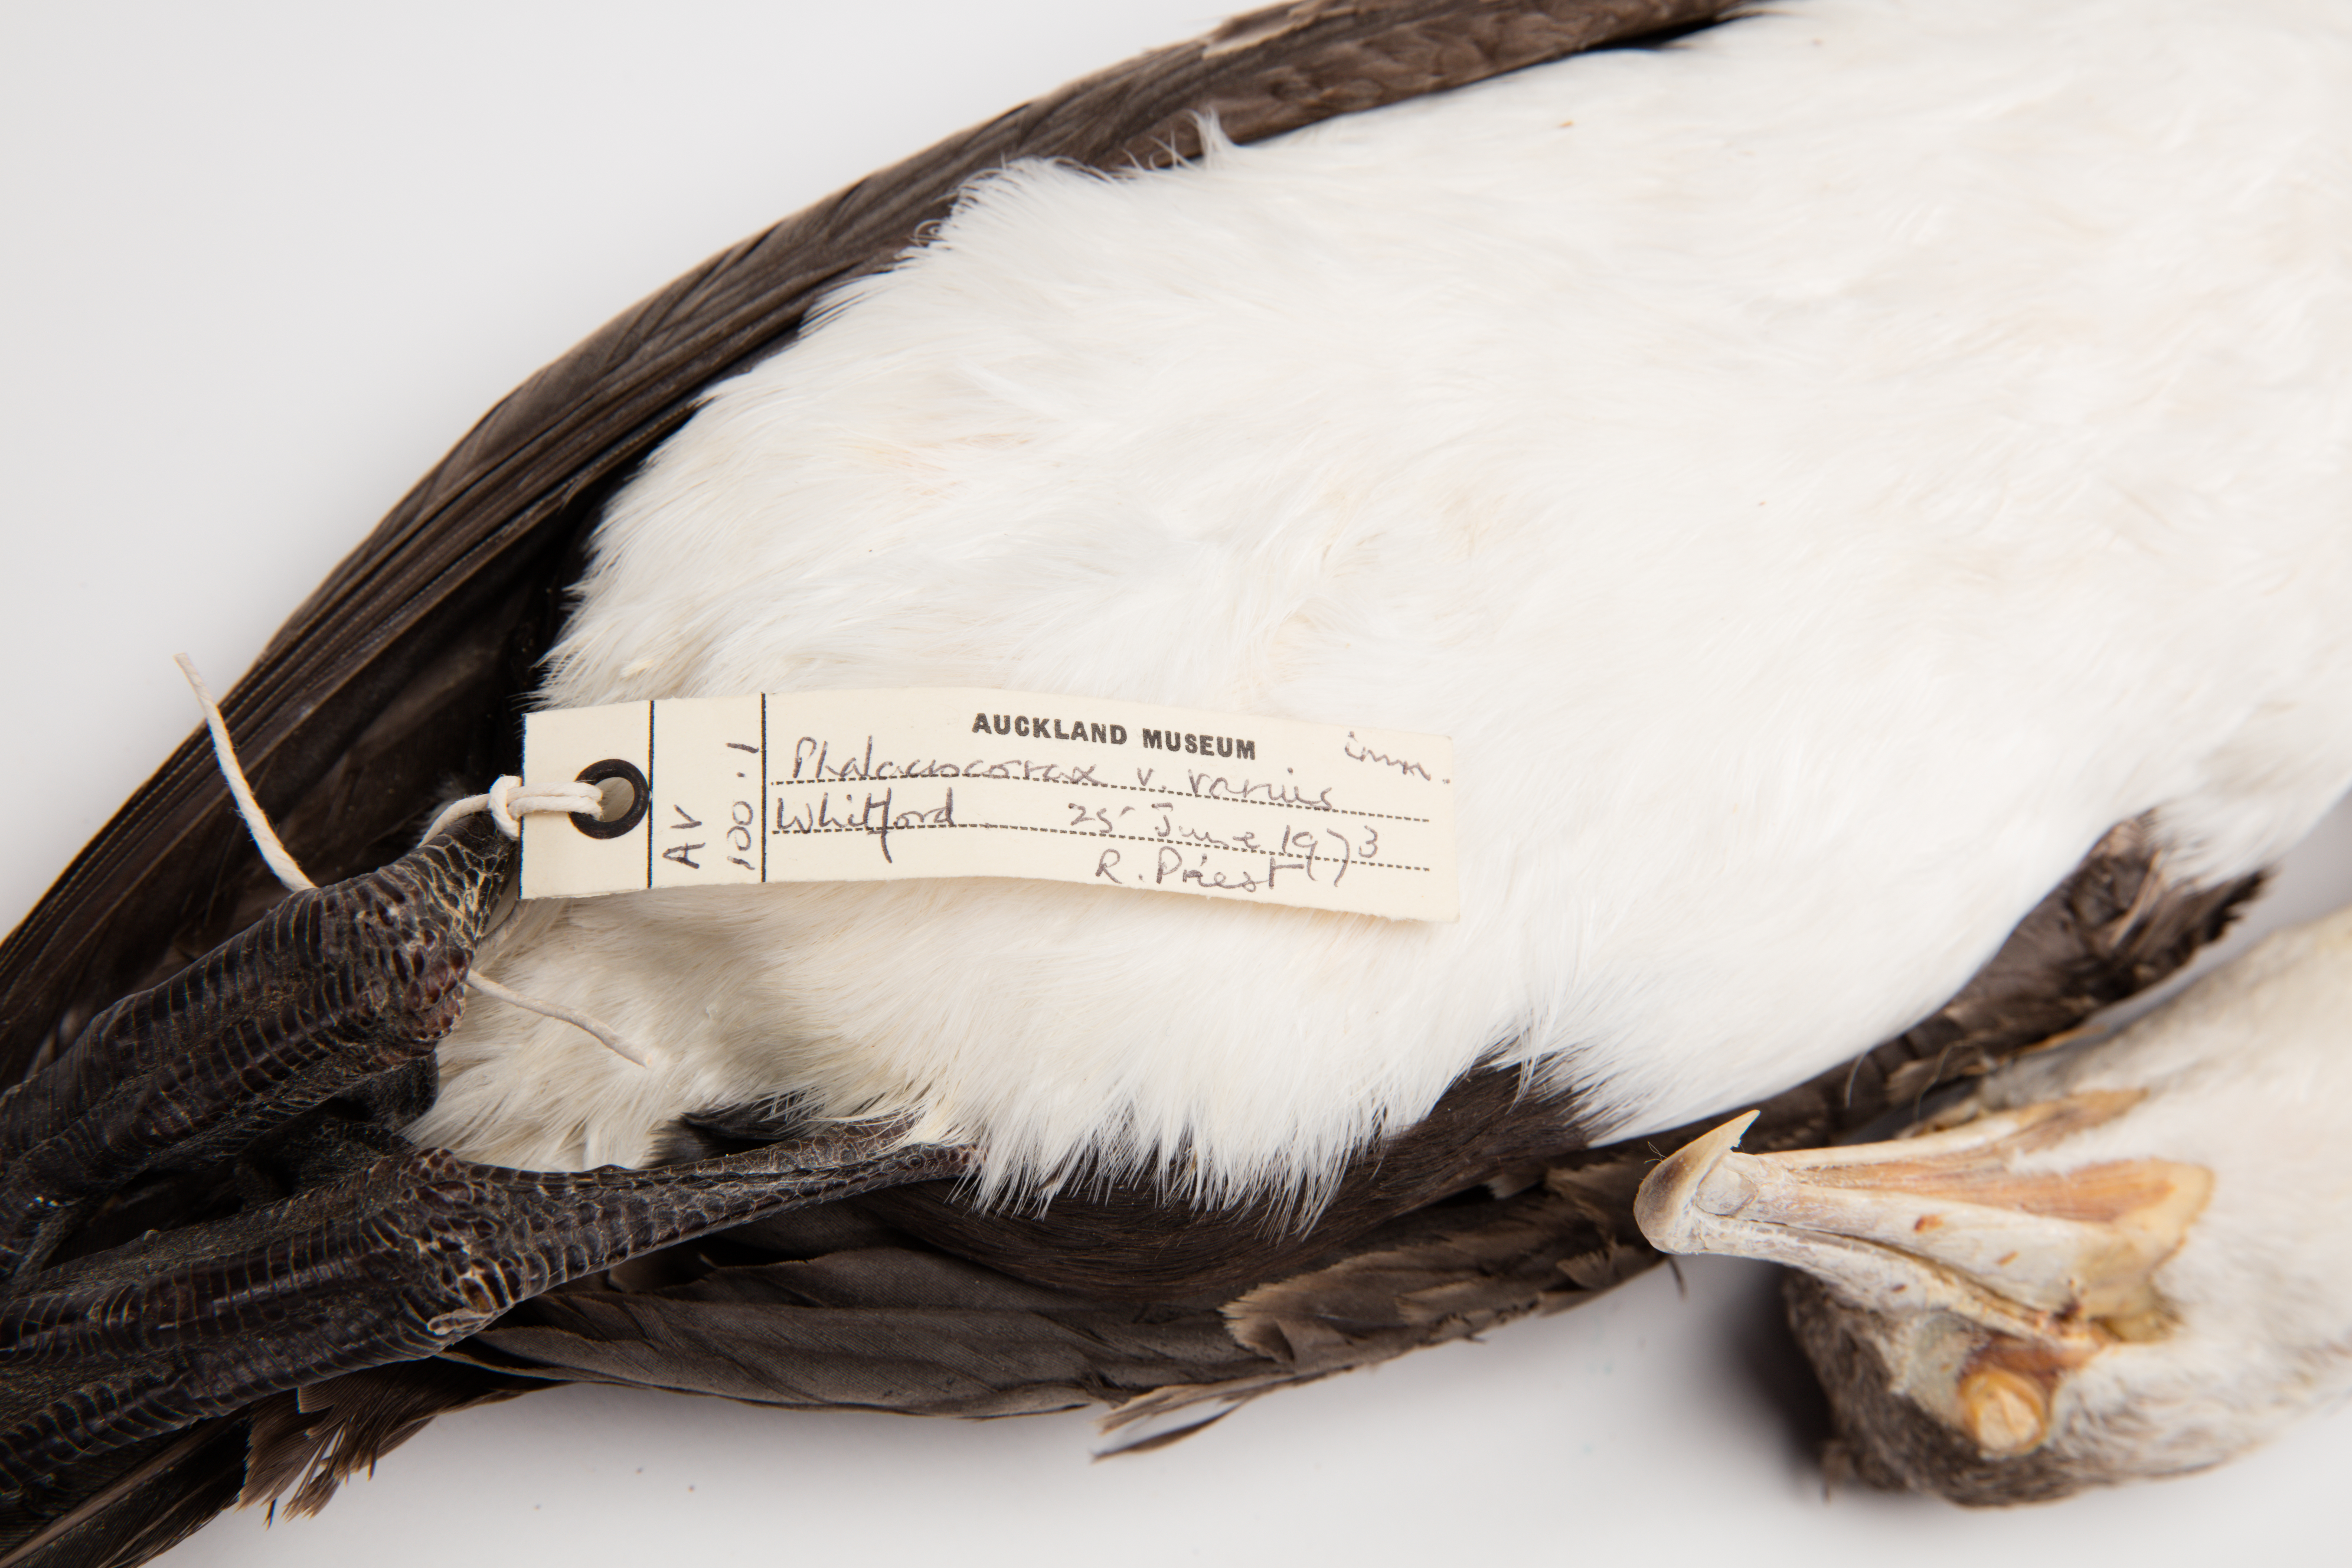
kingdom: Animalia
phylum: Chordata
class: Aves
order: Suliformes
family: Phalacrocoracidae
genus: Phalacrocorax
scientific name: Phalacrocorax varius
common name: Pied cormorant
